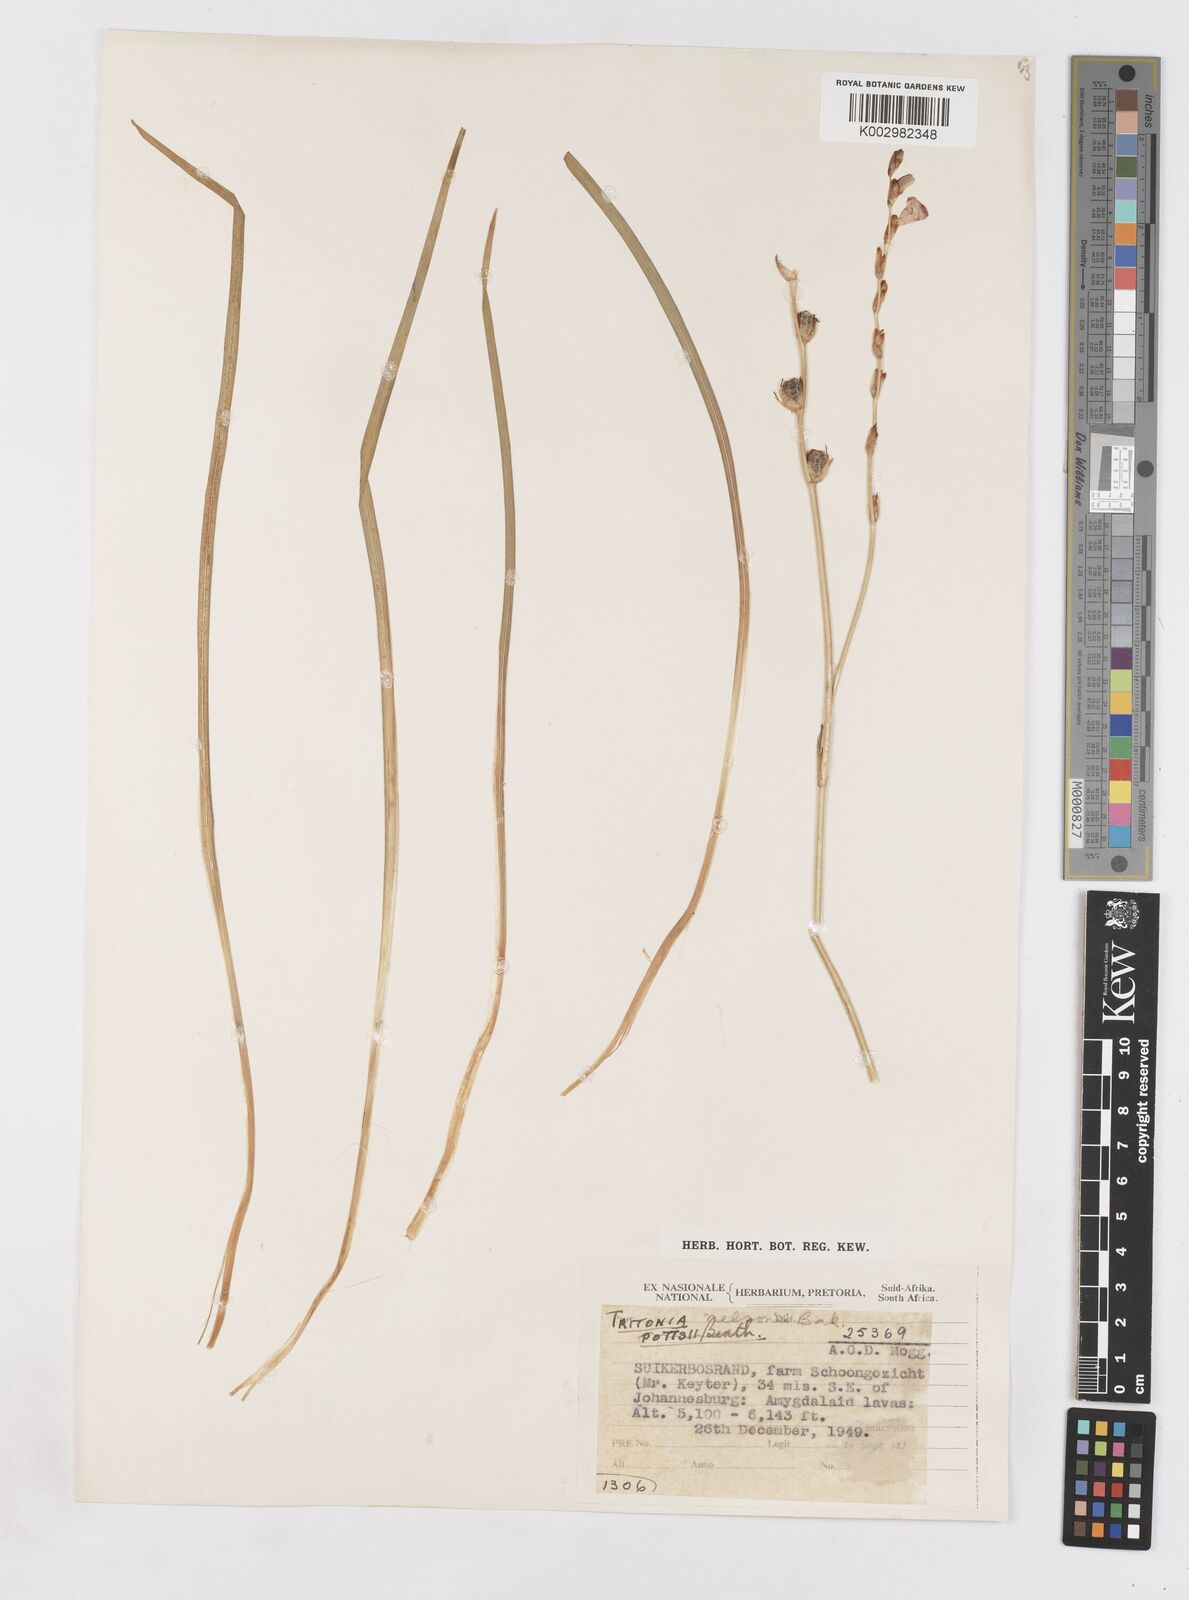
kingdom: Plantae
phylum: Tracheophyta
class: Liliopsida
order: Asparagales
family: Iridaceae
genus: Tritonia
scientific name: Tritonia nelsonii
